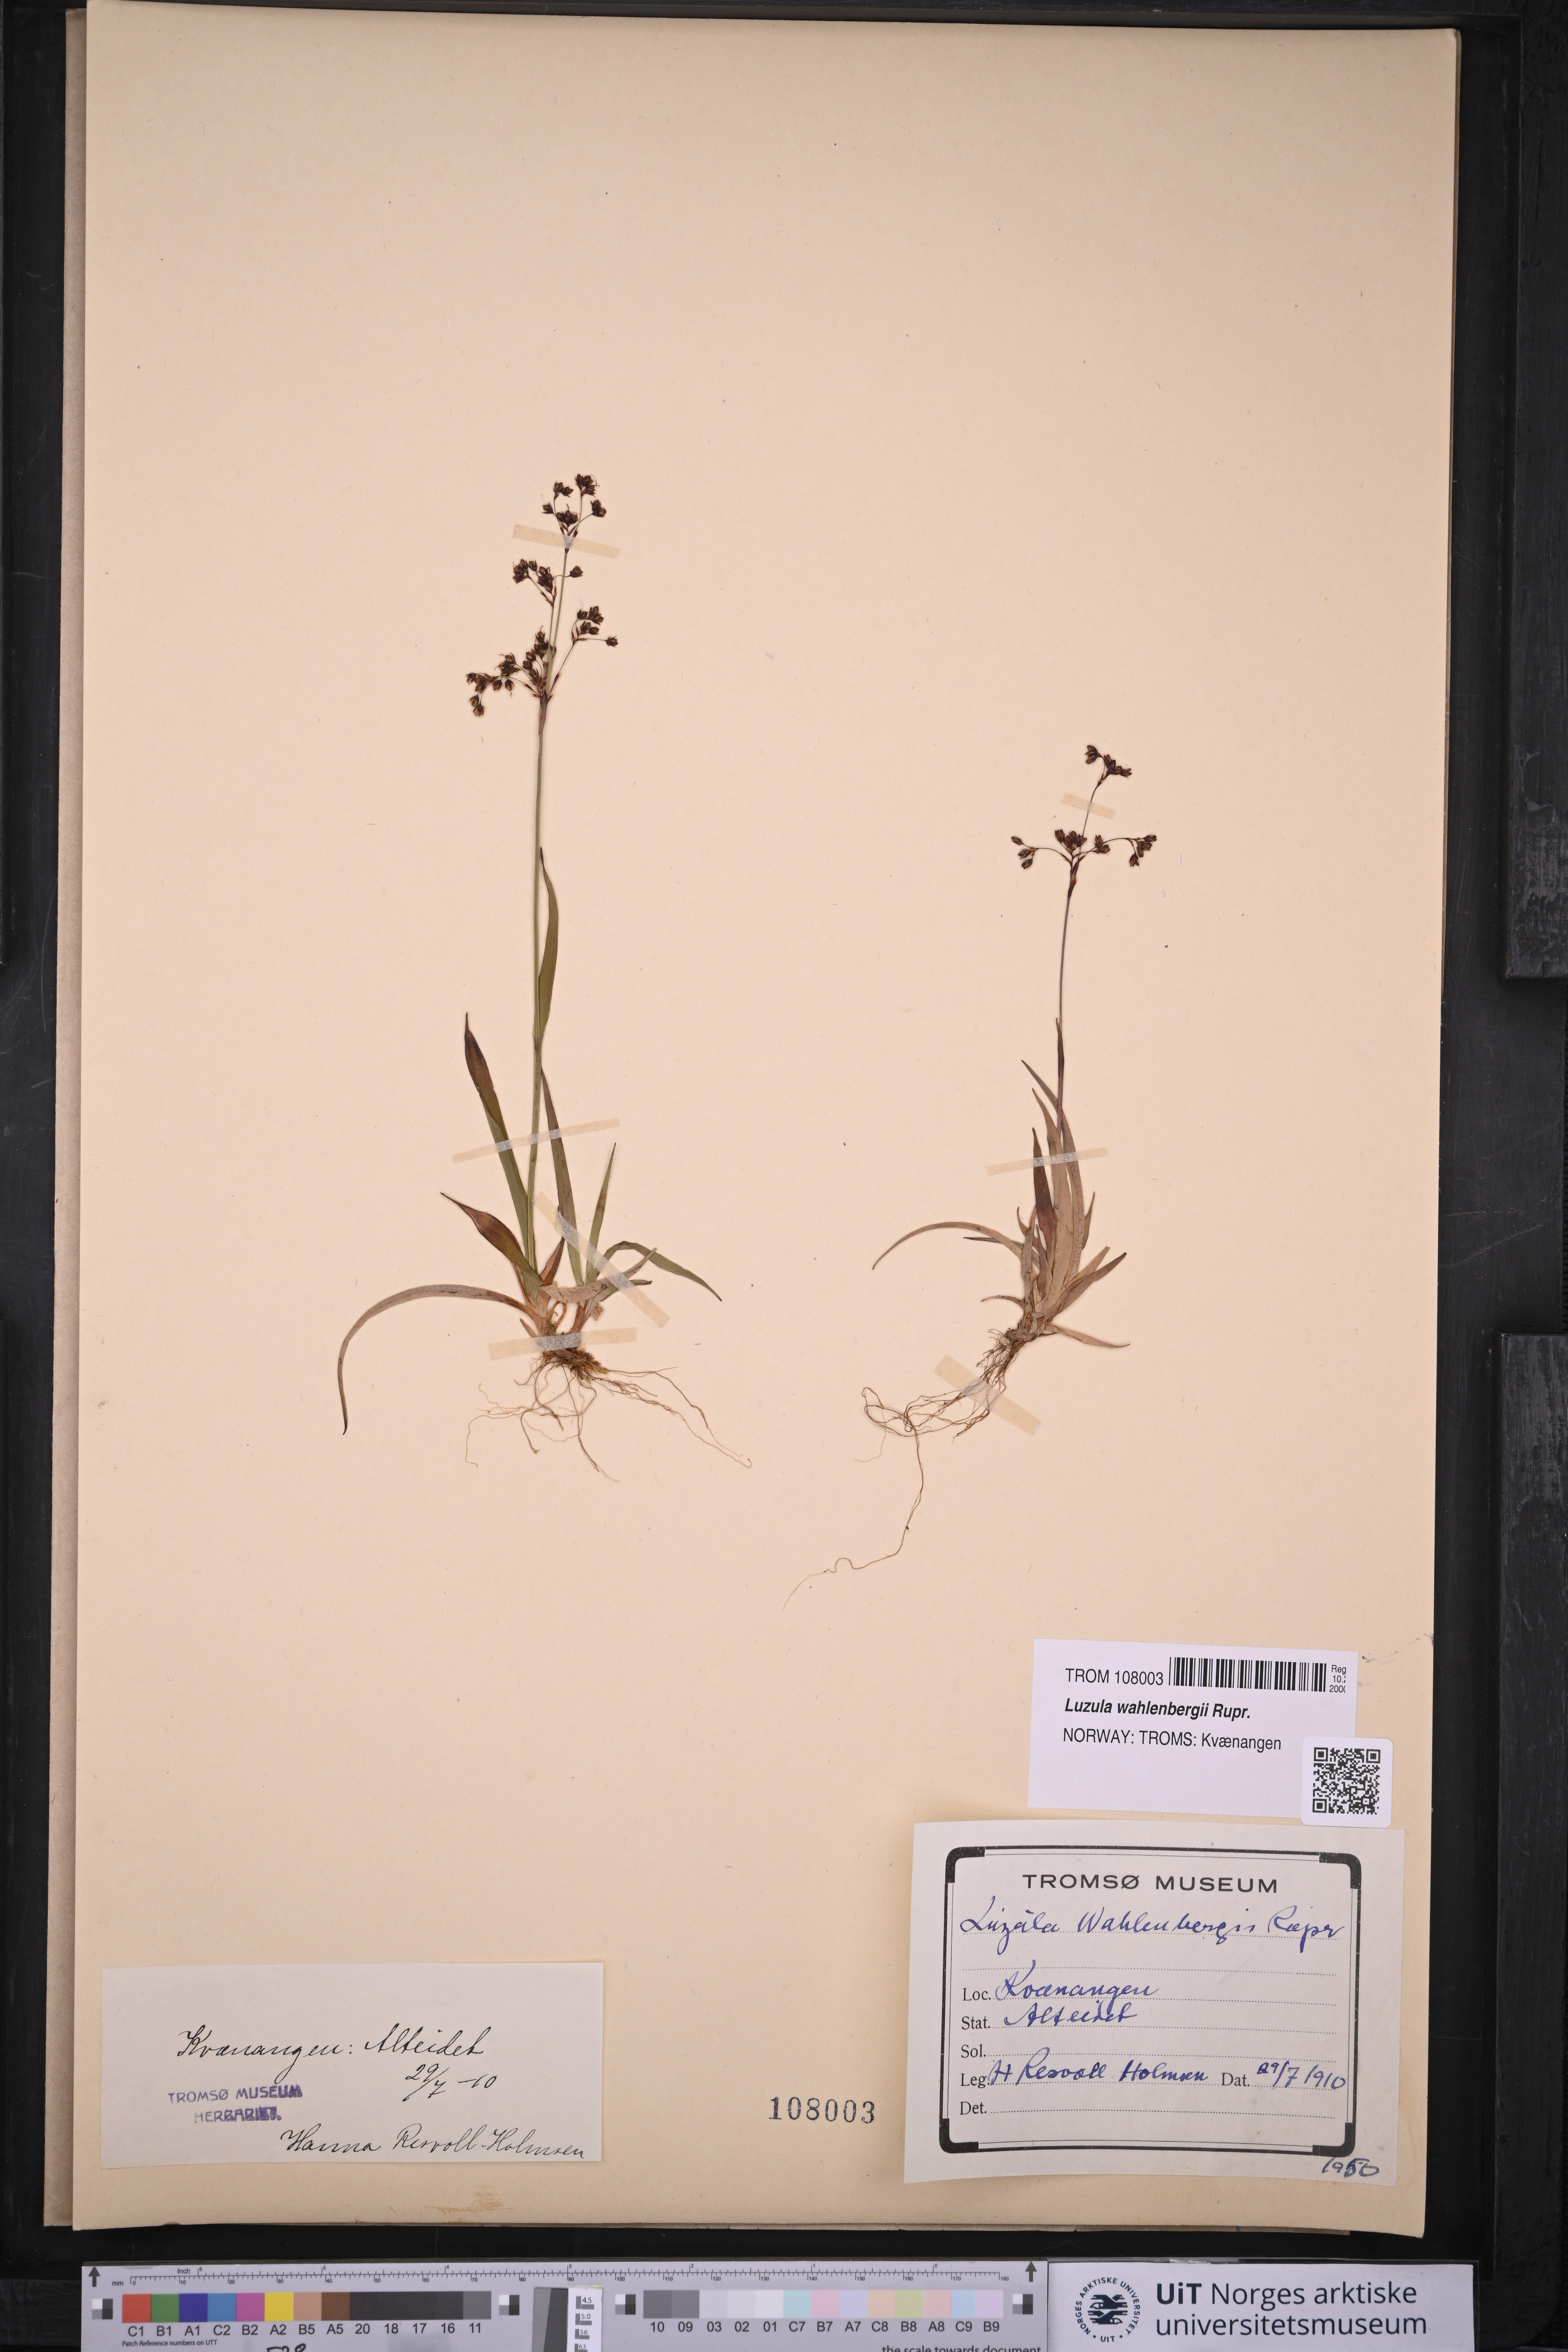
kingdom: Plantae
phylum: Tracheophyta
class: Liliopsida
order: Poales
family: Juncaceae
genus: Luzula
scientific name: Luzula wahlenbergii
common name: Wahlenberg's wood-rush
